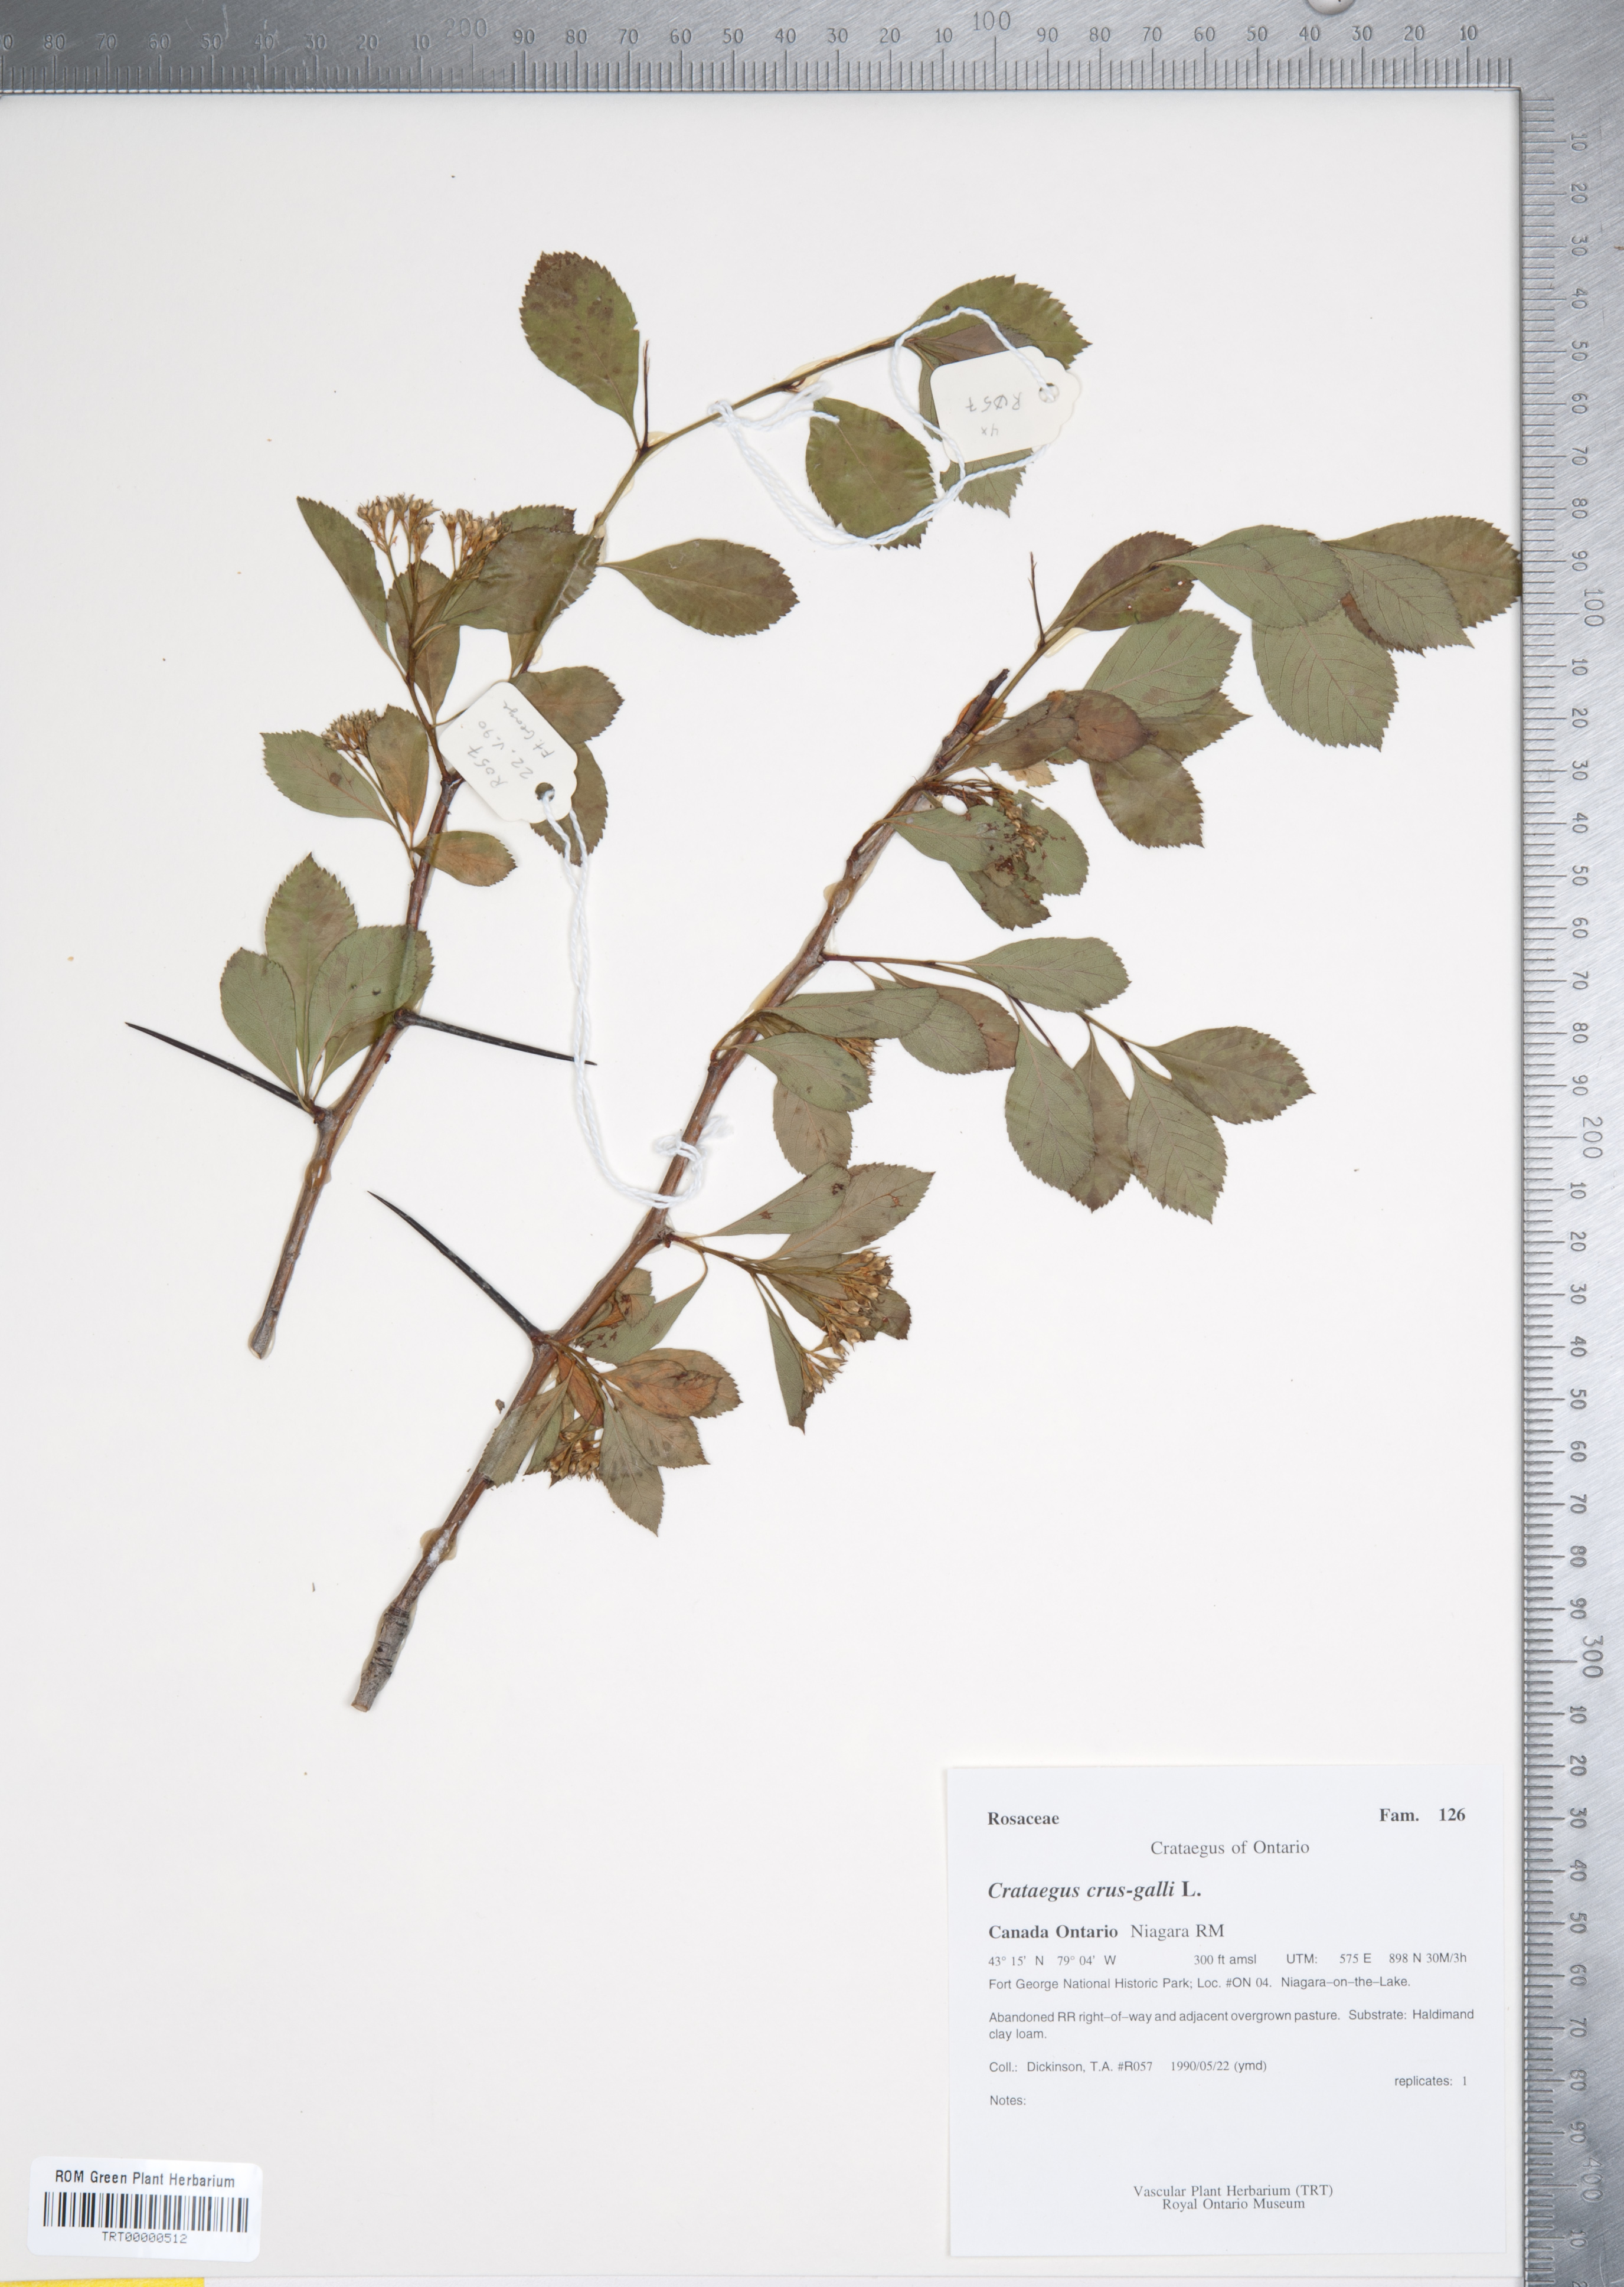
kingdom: Plantae
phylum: Tracheophyta
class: Magnoliopsida
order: Rosales
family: Rosaceae
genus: Crataegus
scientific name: Crataegus crus-galli
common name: Cockspurthorn
